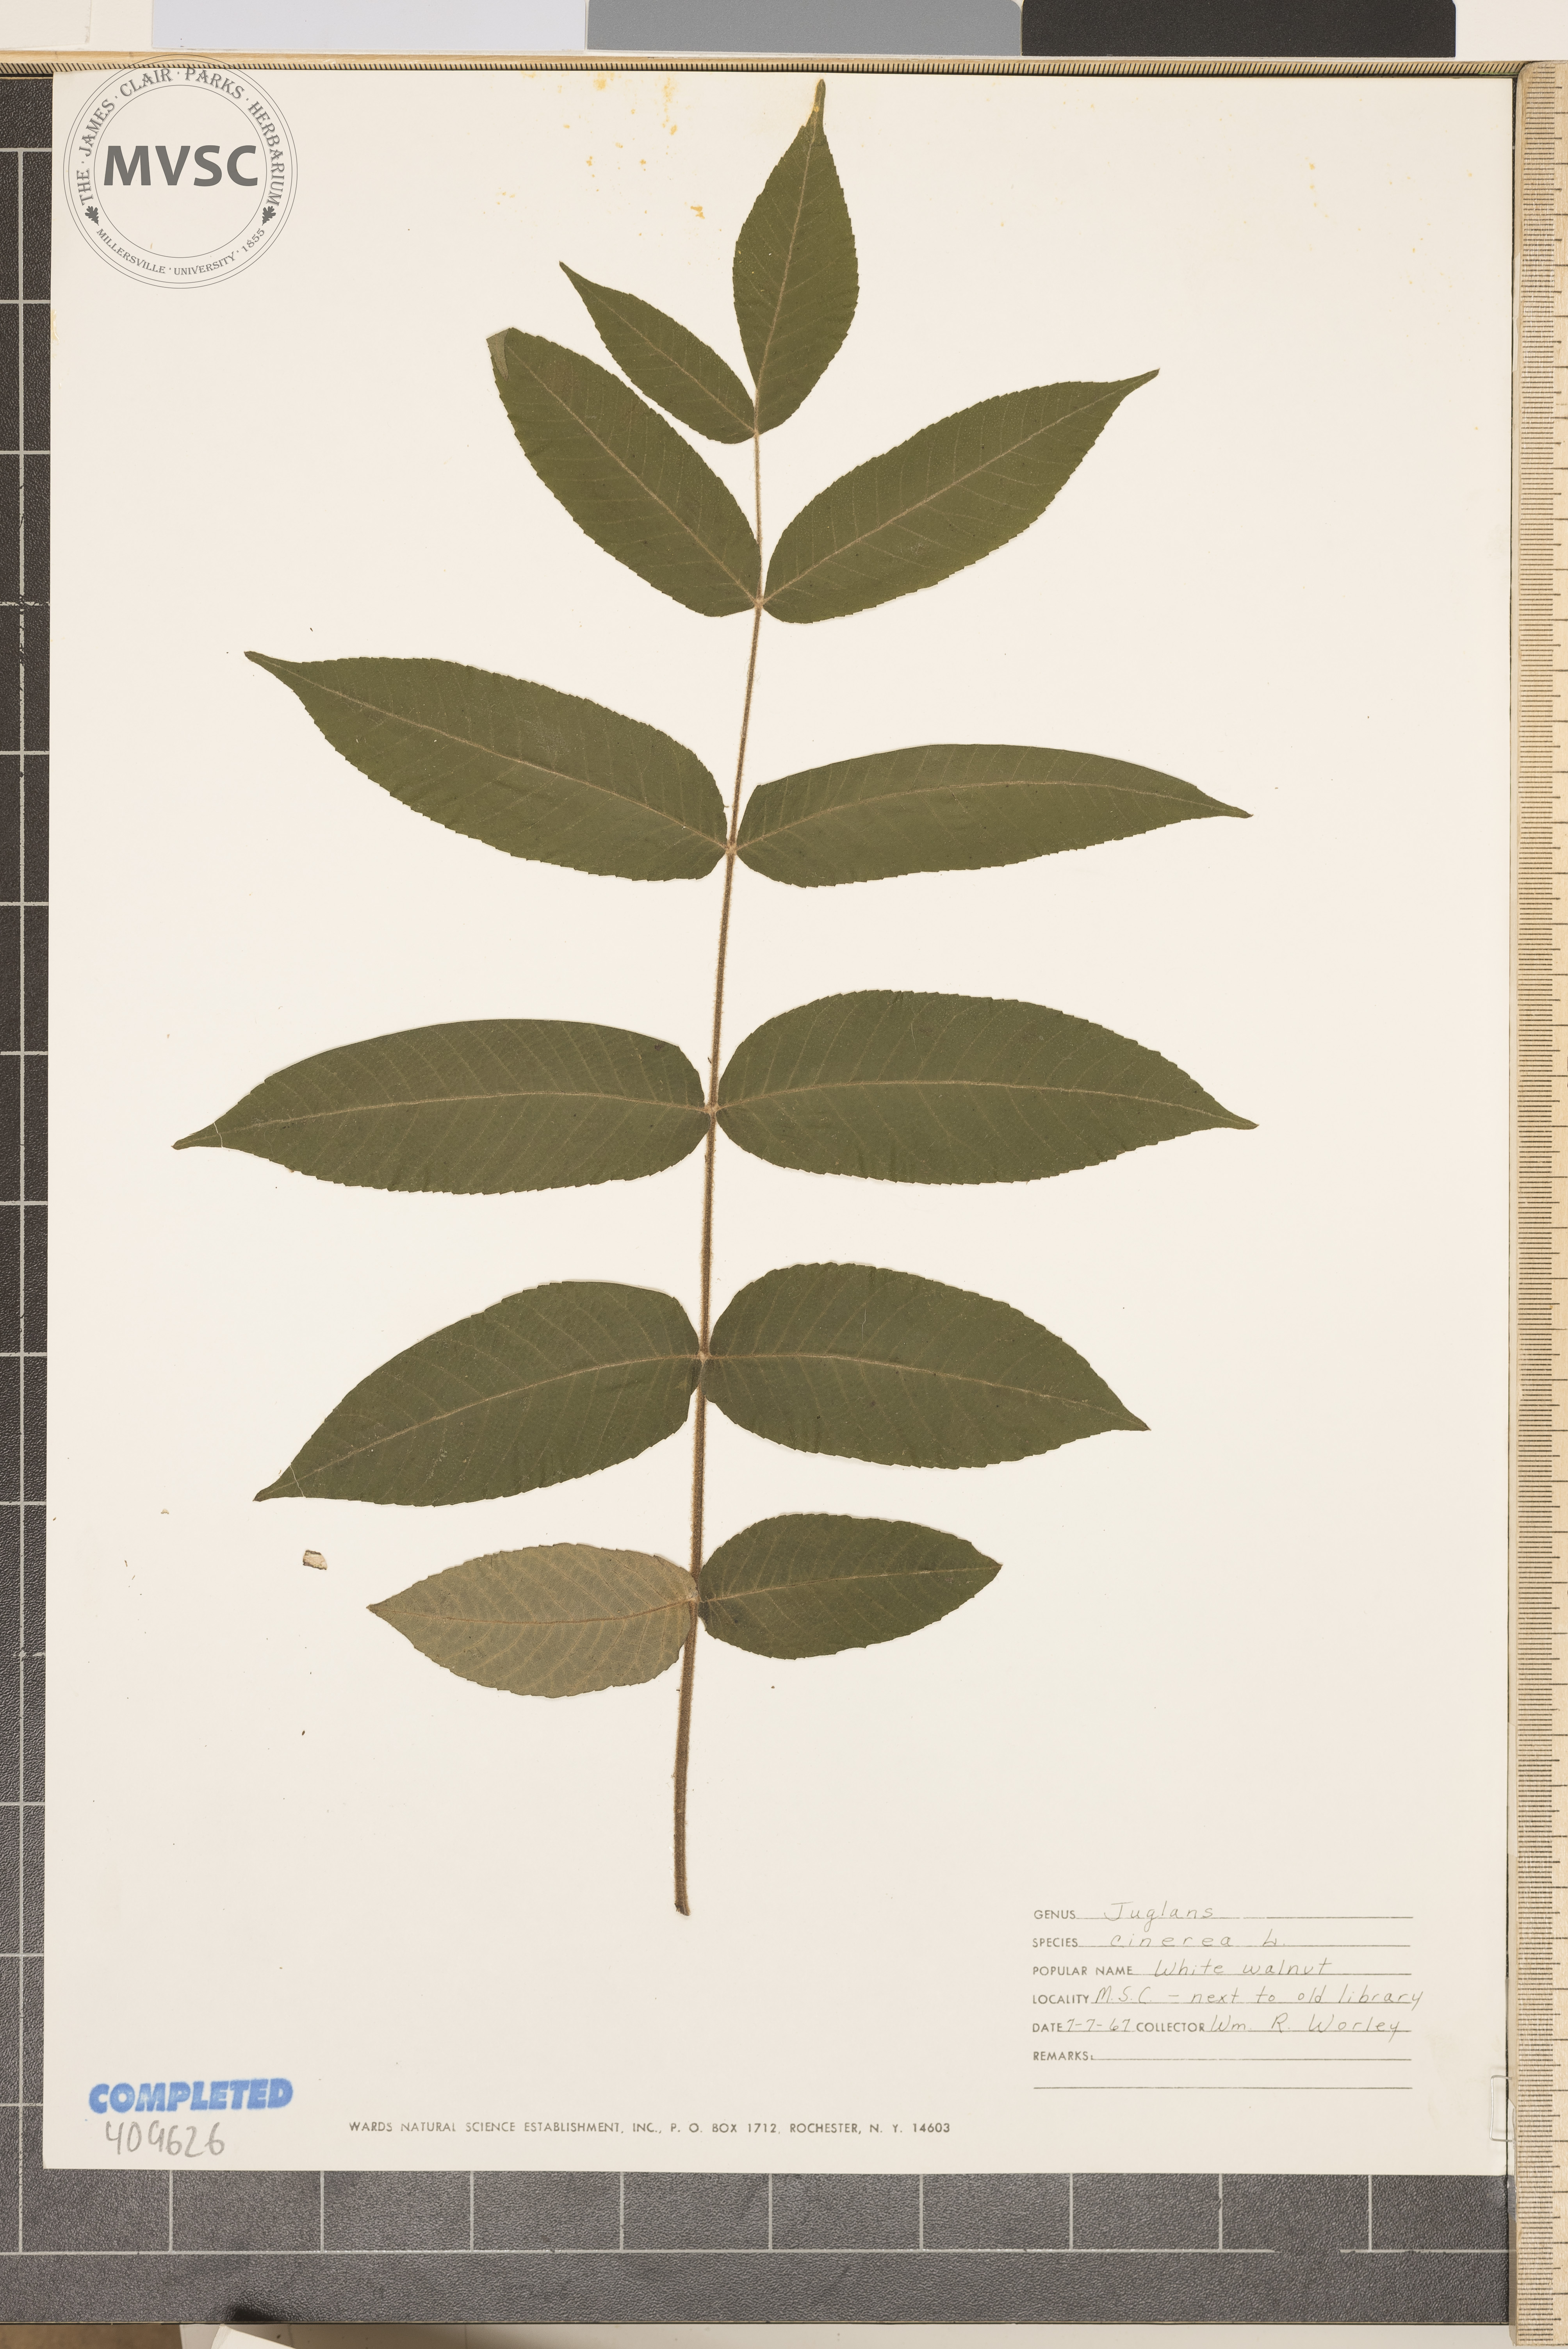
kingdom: Plantae
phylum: Tracheophyta
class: Magnoliopsida
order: Fagales
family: Juglandaceae
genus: Juglans
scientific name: Juglans cinerea
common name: Butternut
